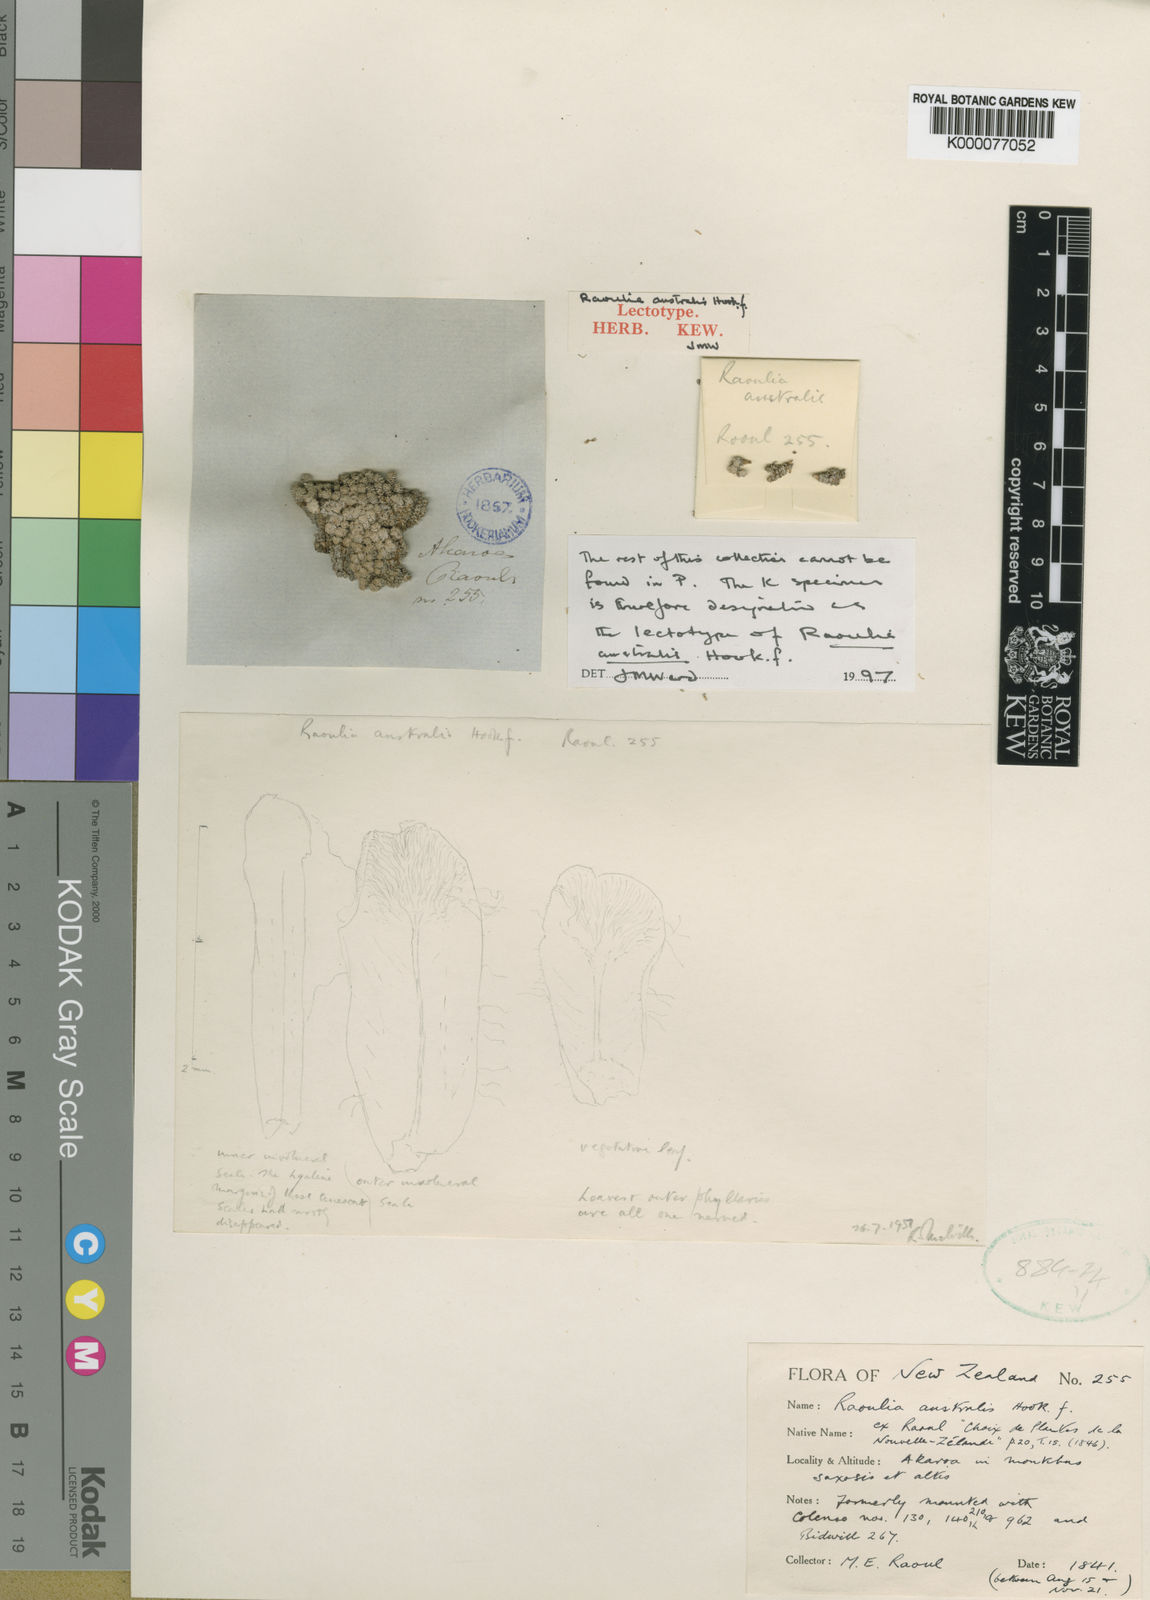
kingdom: Plantae
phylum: Tracheophyta
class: Magnoliopsida
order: Asterales
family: Asteraceae
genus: Raoulia
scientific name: Raoulia australis
